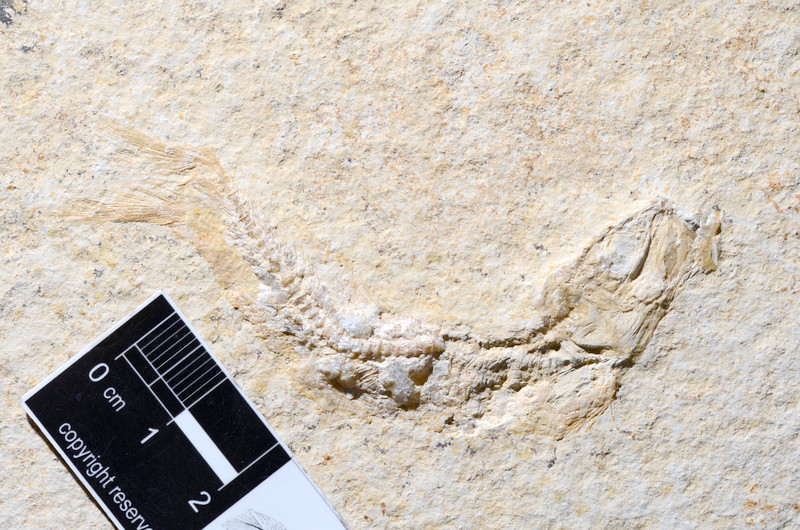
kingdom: Animalia
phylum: Chordata
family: Ascalaboidae
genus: Tharsis
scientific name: Tharsis dubius
